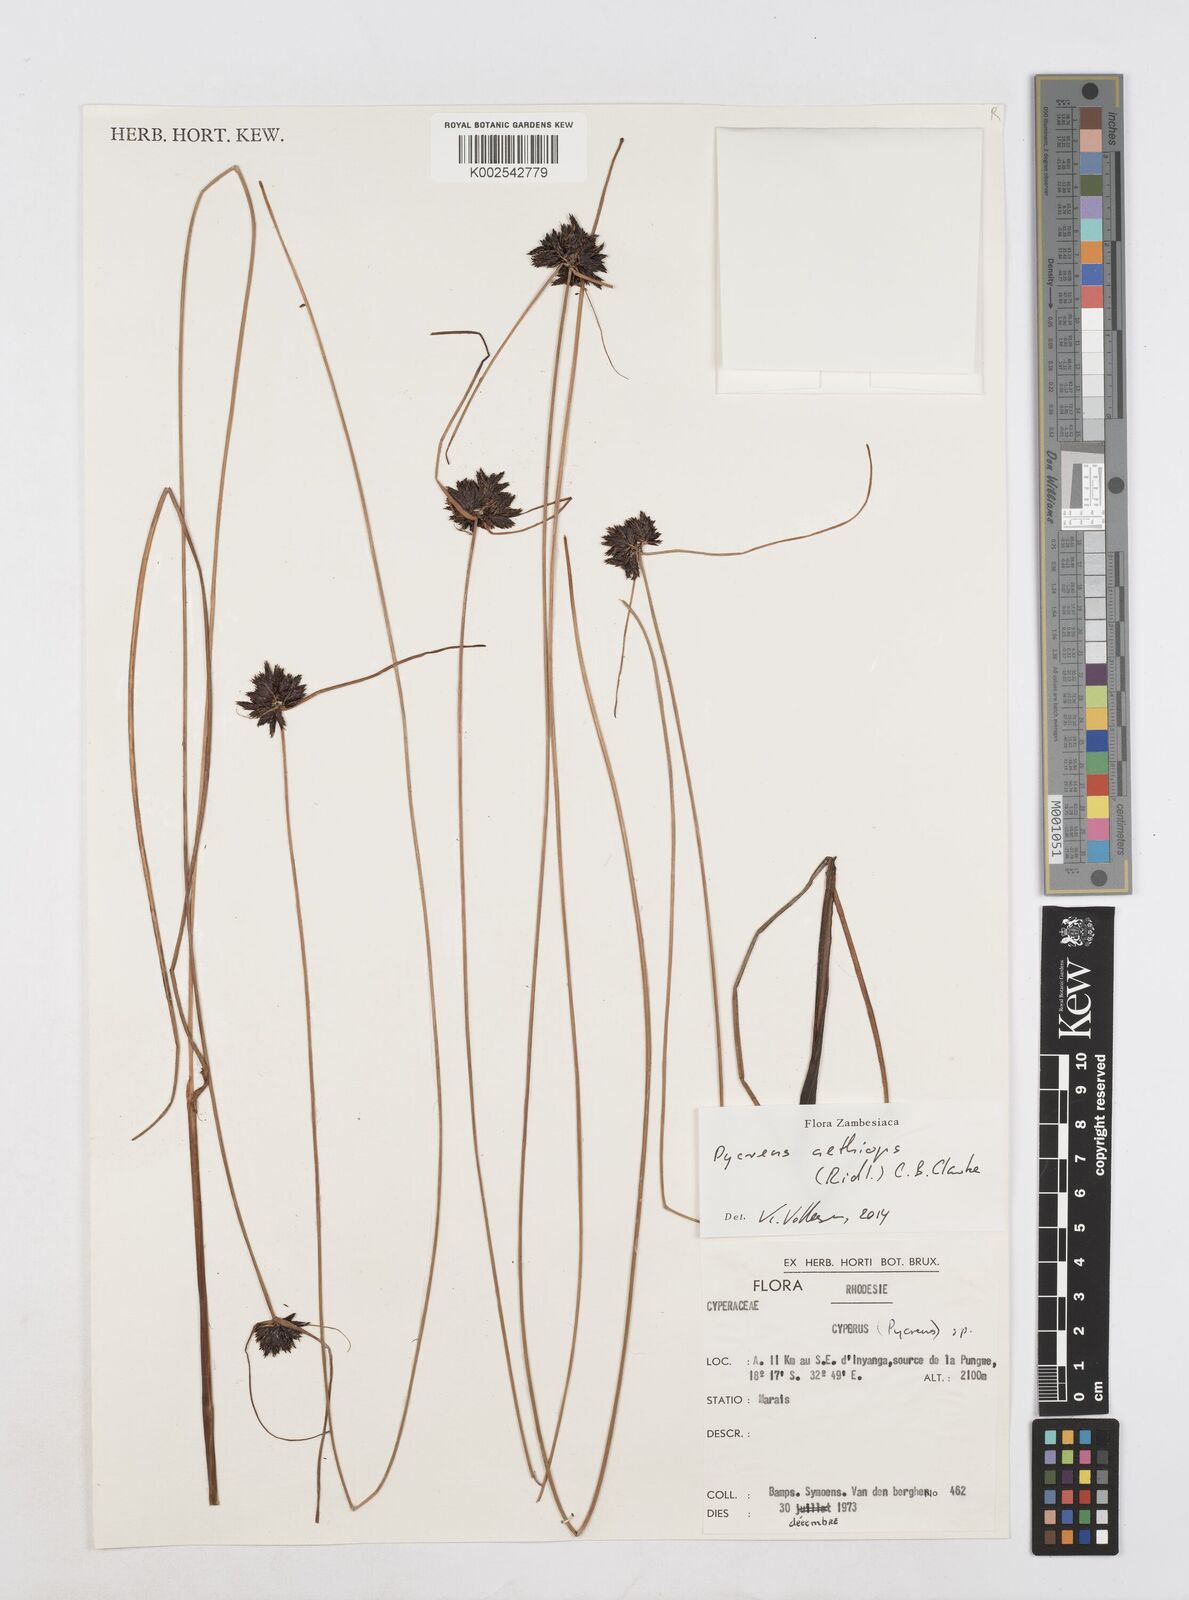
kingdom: Plantae
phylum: Tracheophyta
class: Liliopsida
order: Poales
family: Cyperaceae
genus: Cyperus
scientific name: Cyperus aethiops
